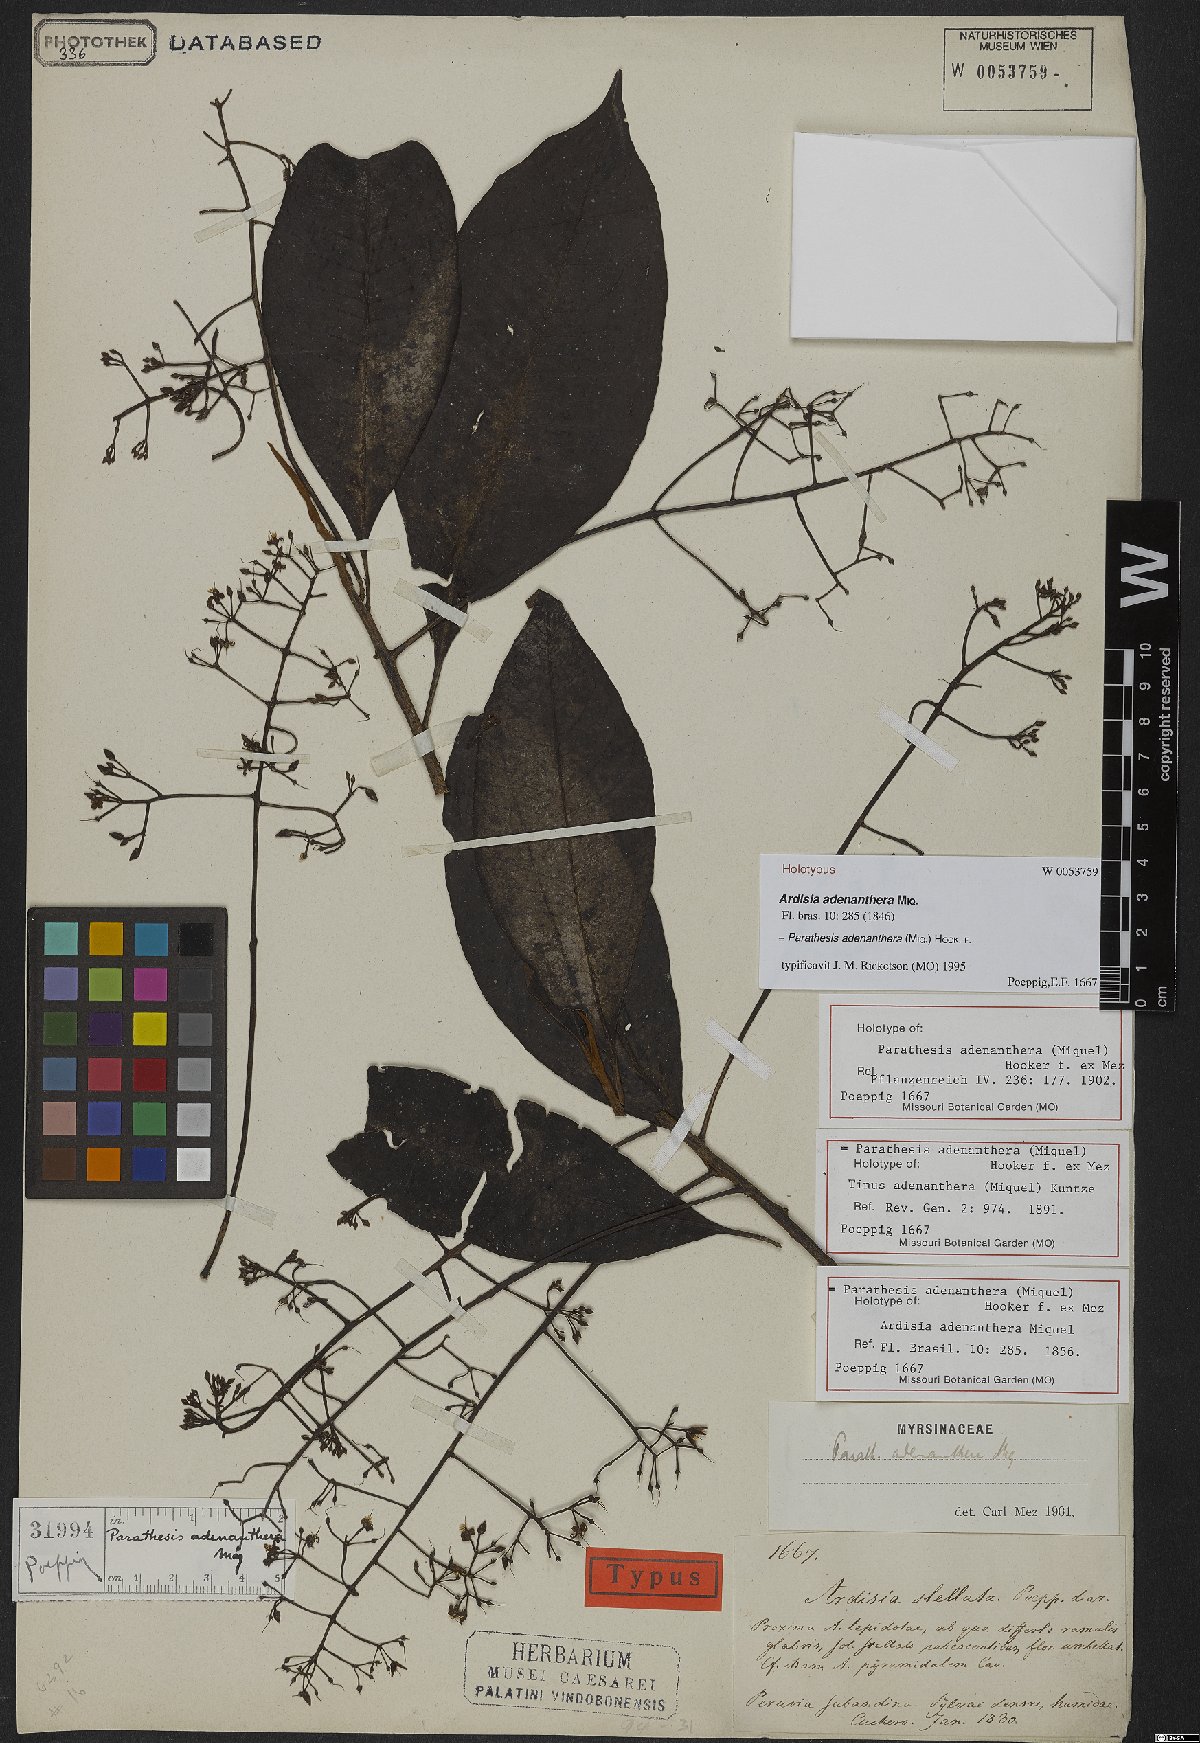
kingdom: Plantae
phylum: Tracheophyta
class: Magnoliopsida
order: Ericales
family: Primulaceae
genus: Parathesis
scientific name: Parathesis adenanthera
